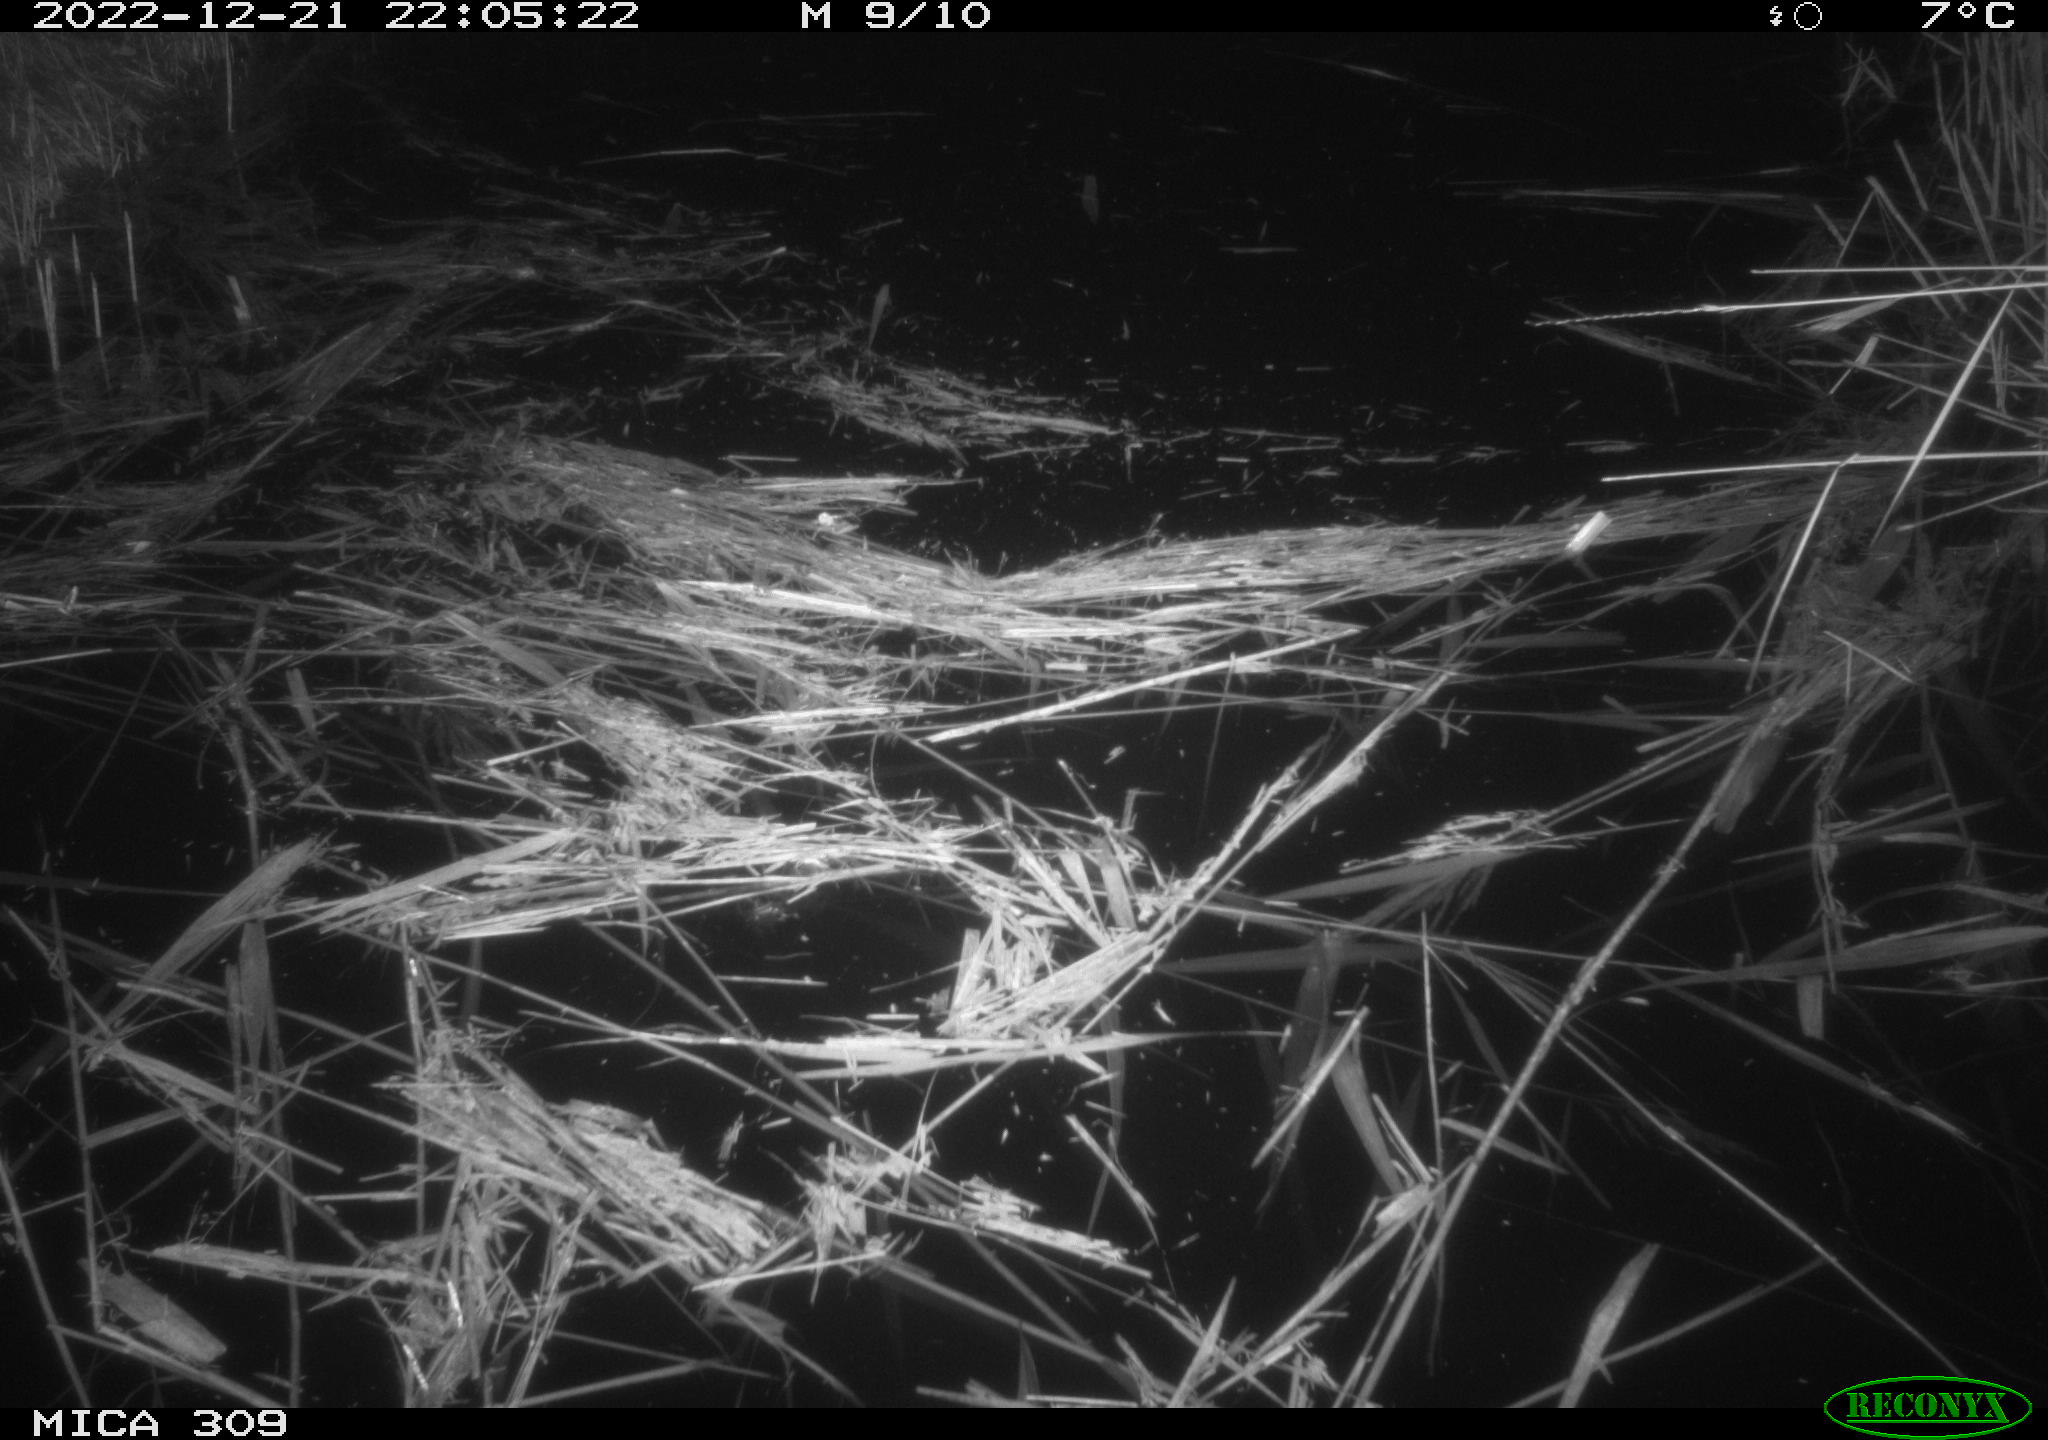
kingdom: Animalia
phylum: Chordata
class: Aves
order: Anseriformes
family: Anatidae
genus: Anas
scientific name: Anas
